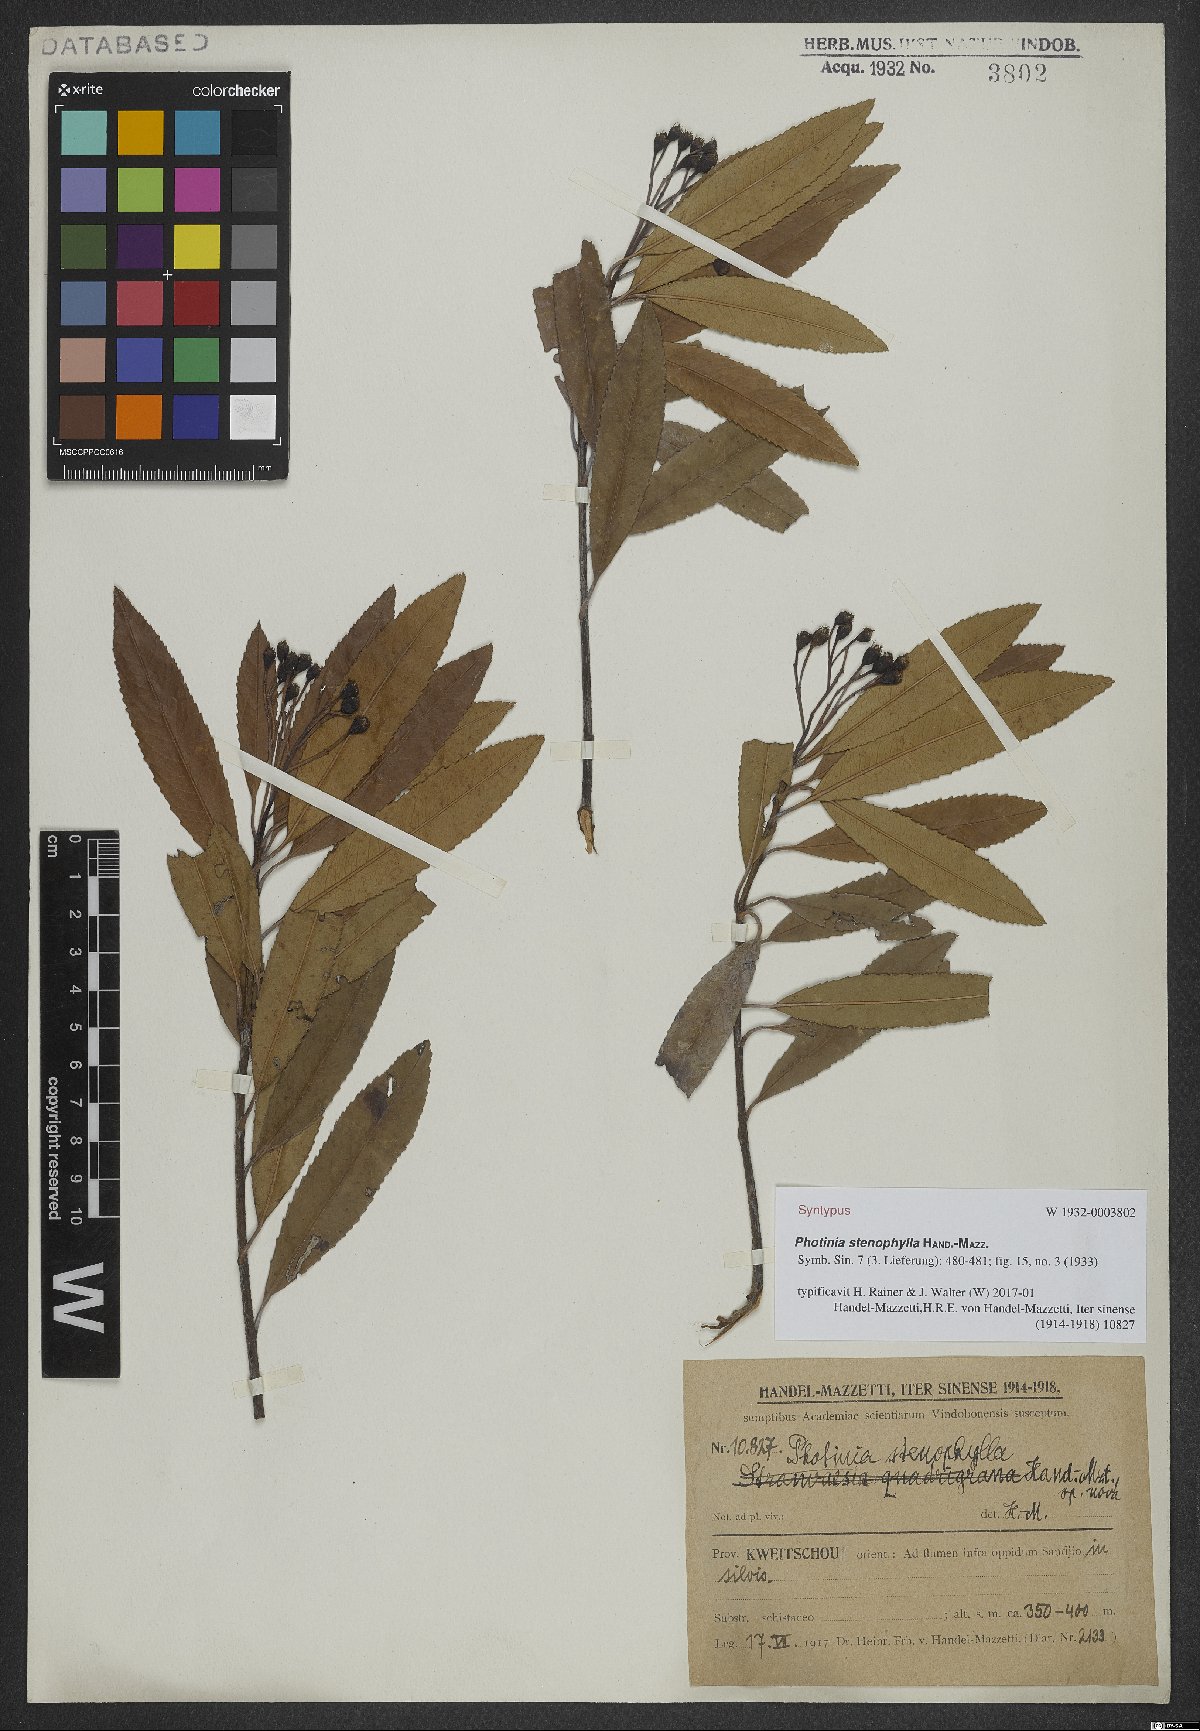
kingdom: Plantae
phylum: Tracheophyta
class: Magnoliopsida
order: Rosales
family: Rosaceae
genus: Photinia
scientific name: Photinia stenophylla
